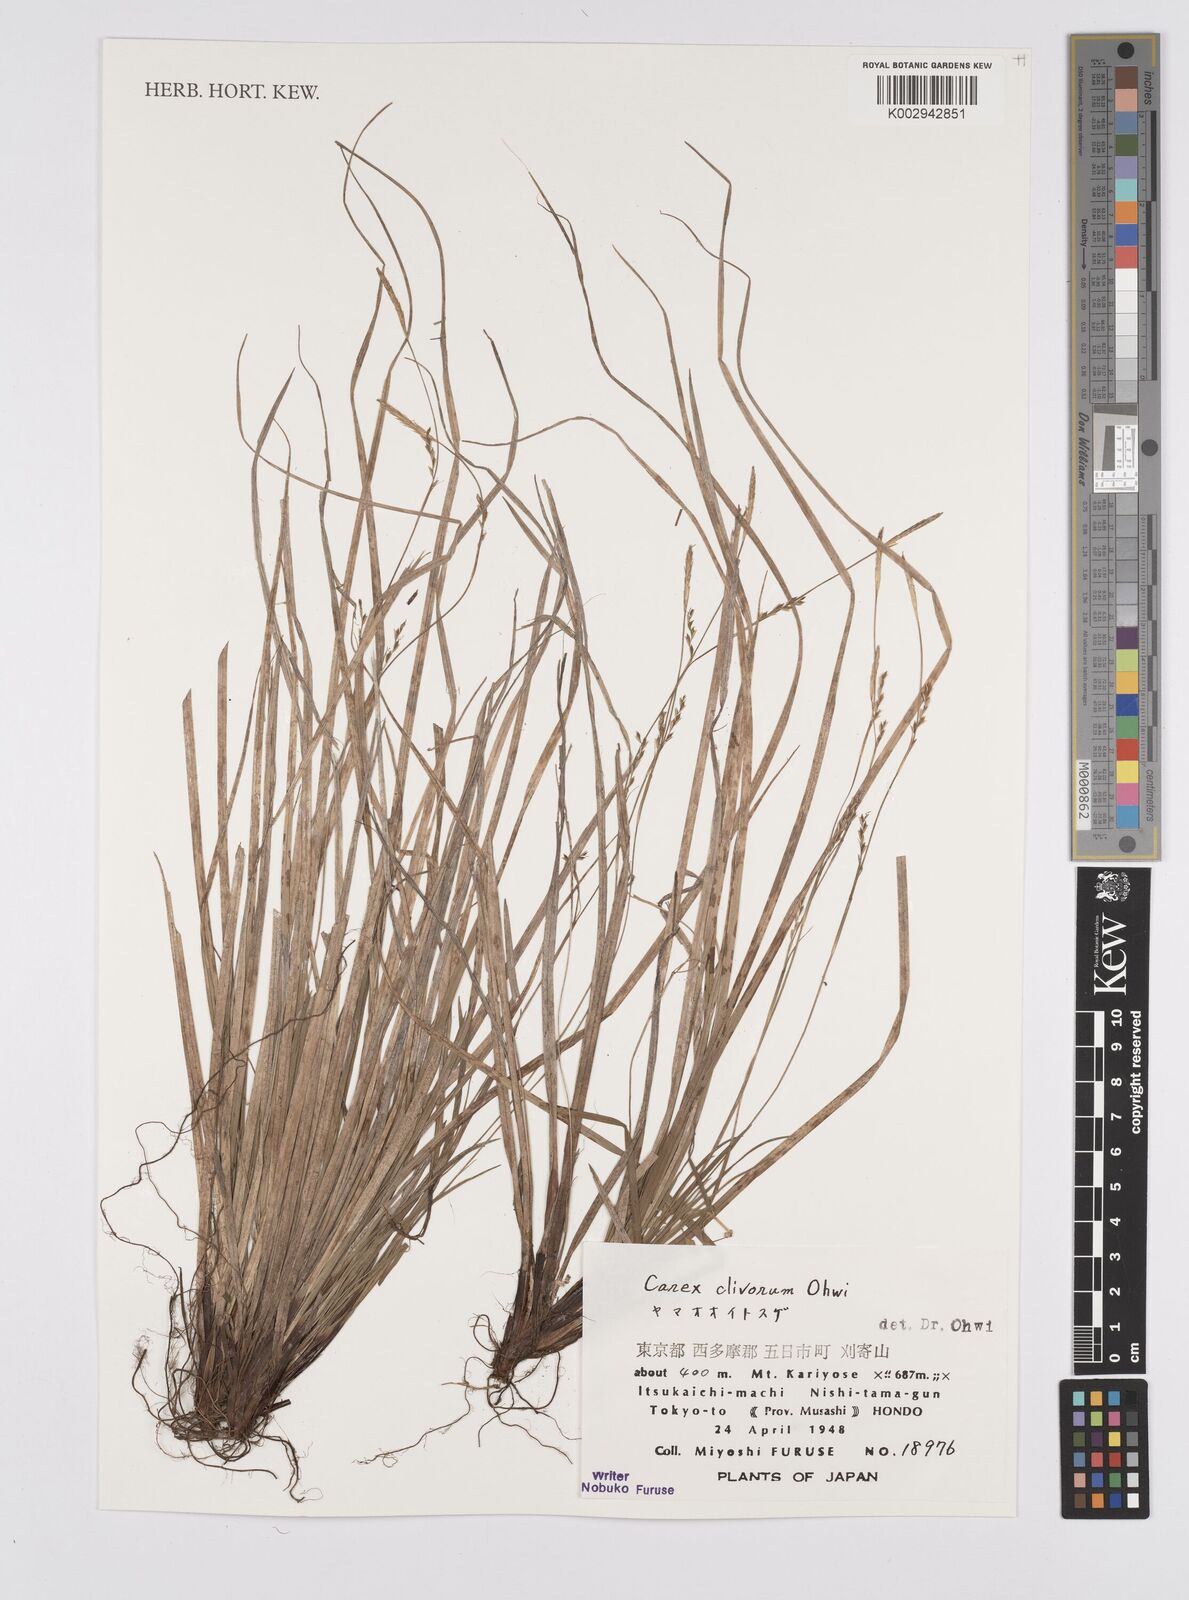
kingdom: Plantae
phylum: Tracheophyta
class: Liliopsida
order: Poales
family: Cyperaceae
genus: Carex
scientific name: Carex clivorum
